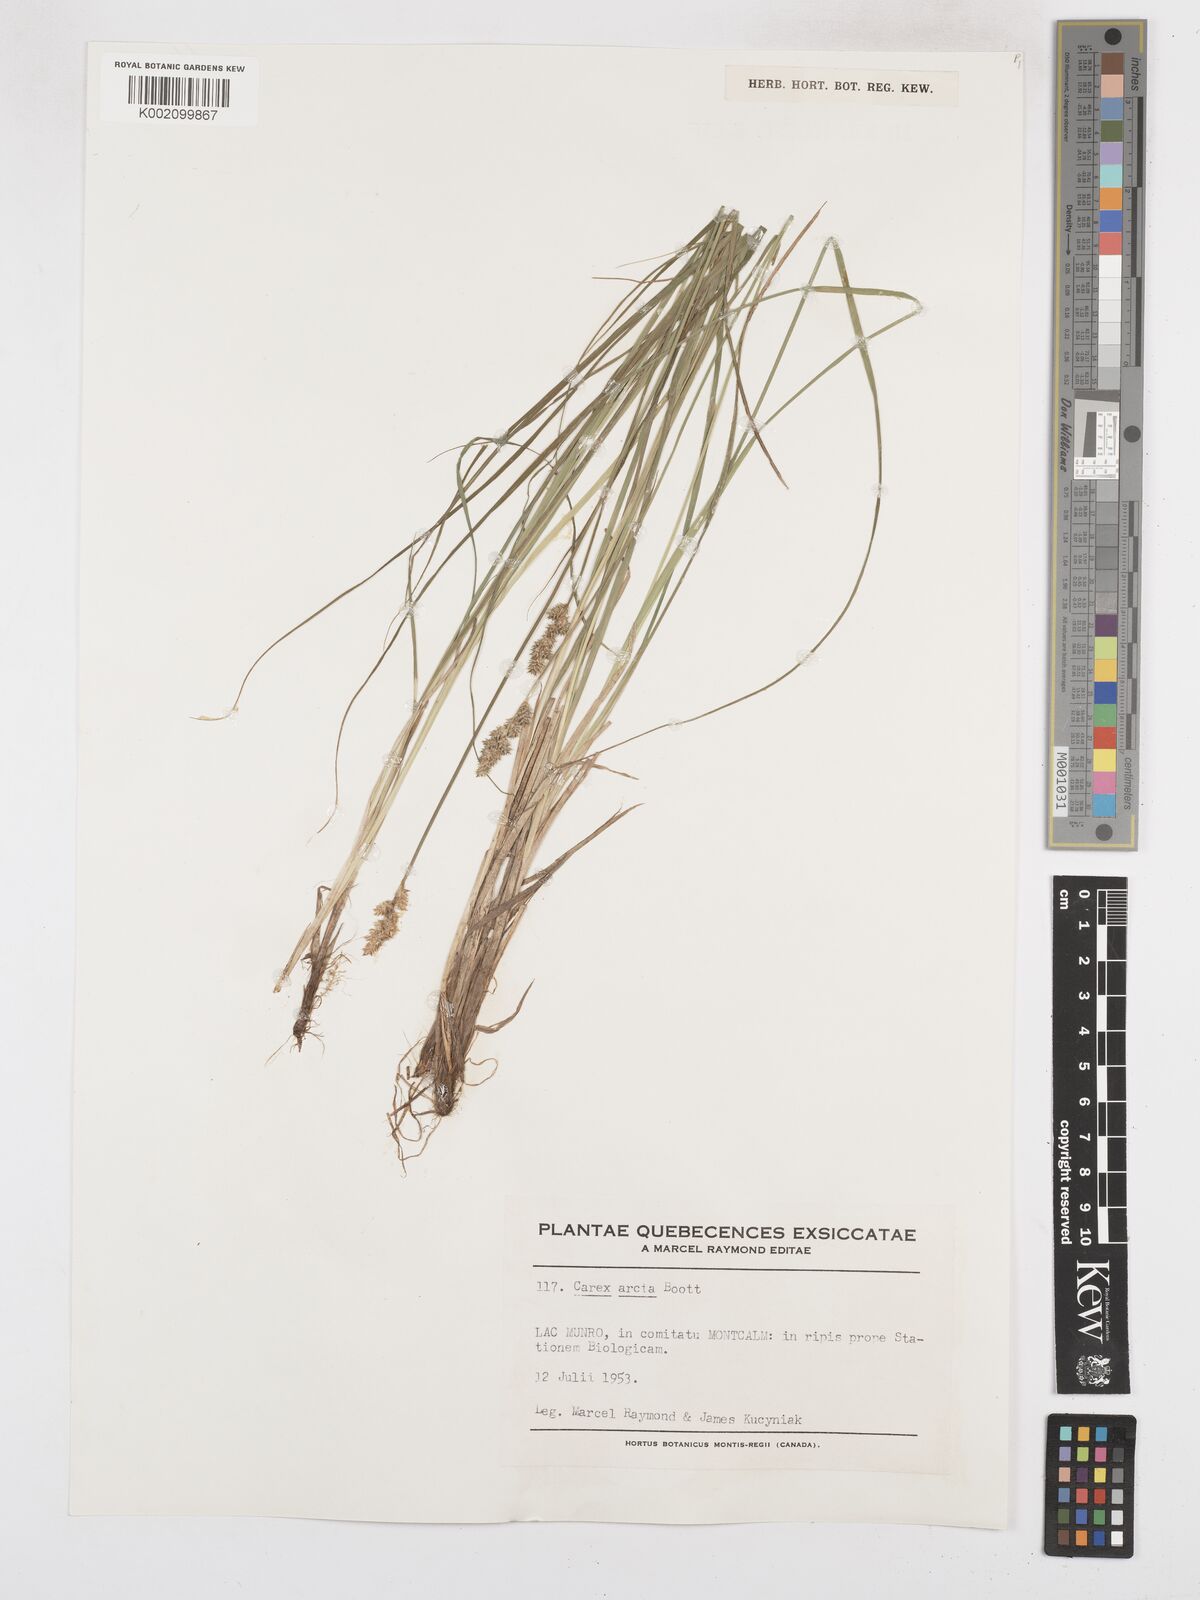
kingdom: Plantae
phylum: Tracheophyta
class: Liliopsida
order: Poales
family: Cyperaceae
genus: Carex
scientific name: Carex arcta
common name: Bear sedge
